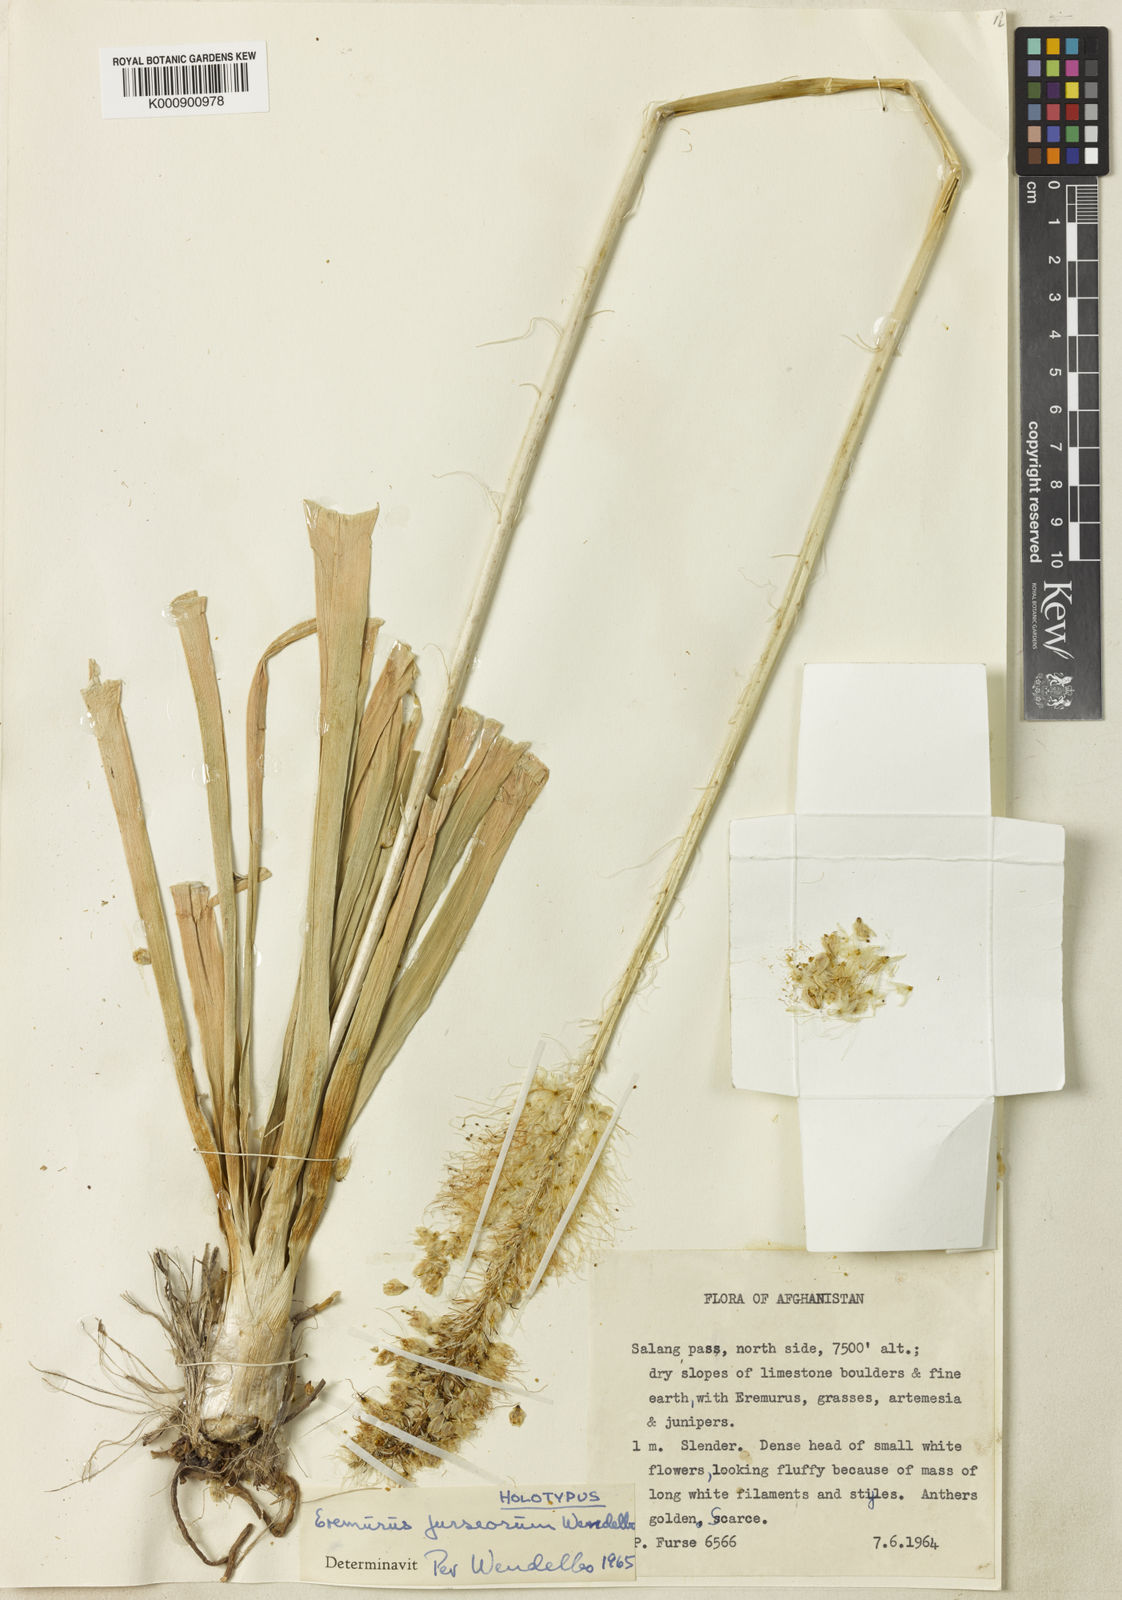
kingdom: Plantae
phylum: Tracheophyta
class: Liliopsida
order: Asparagales
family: Asphodelaceae
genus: Eremurus
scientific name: Eremurus furseorum
